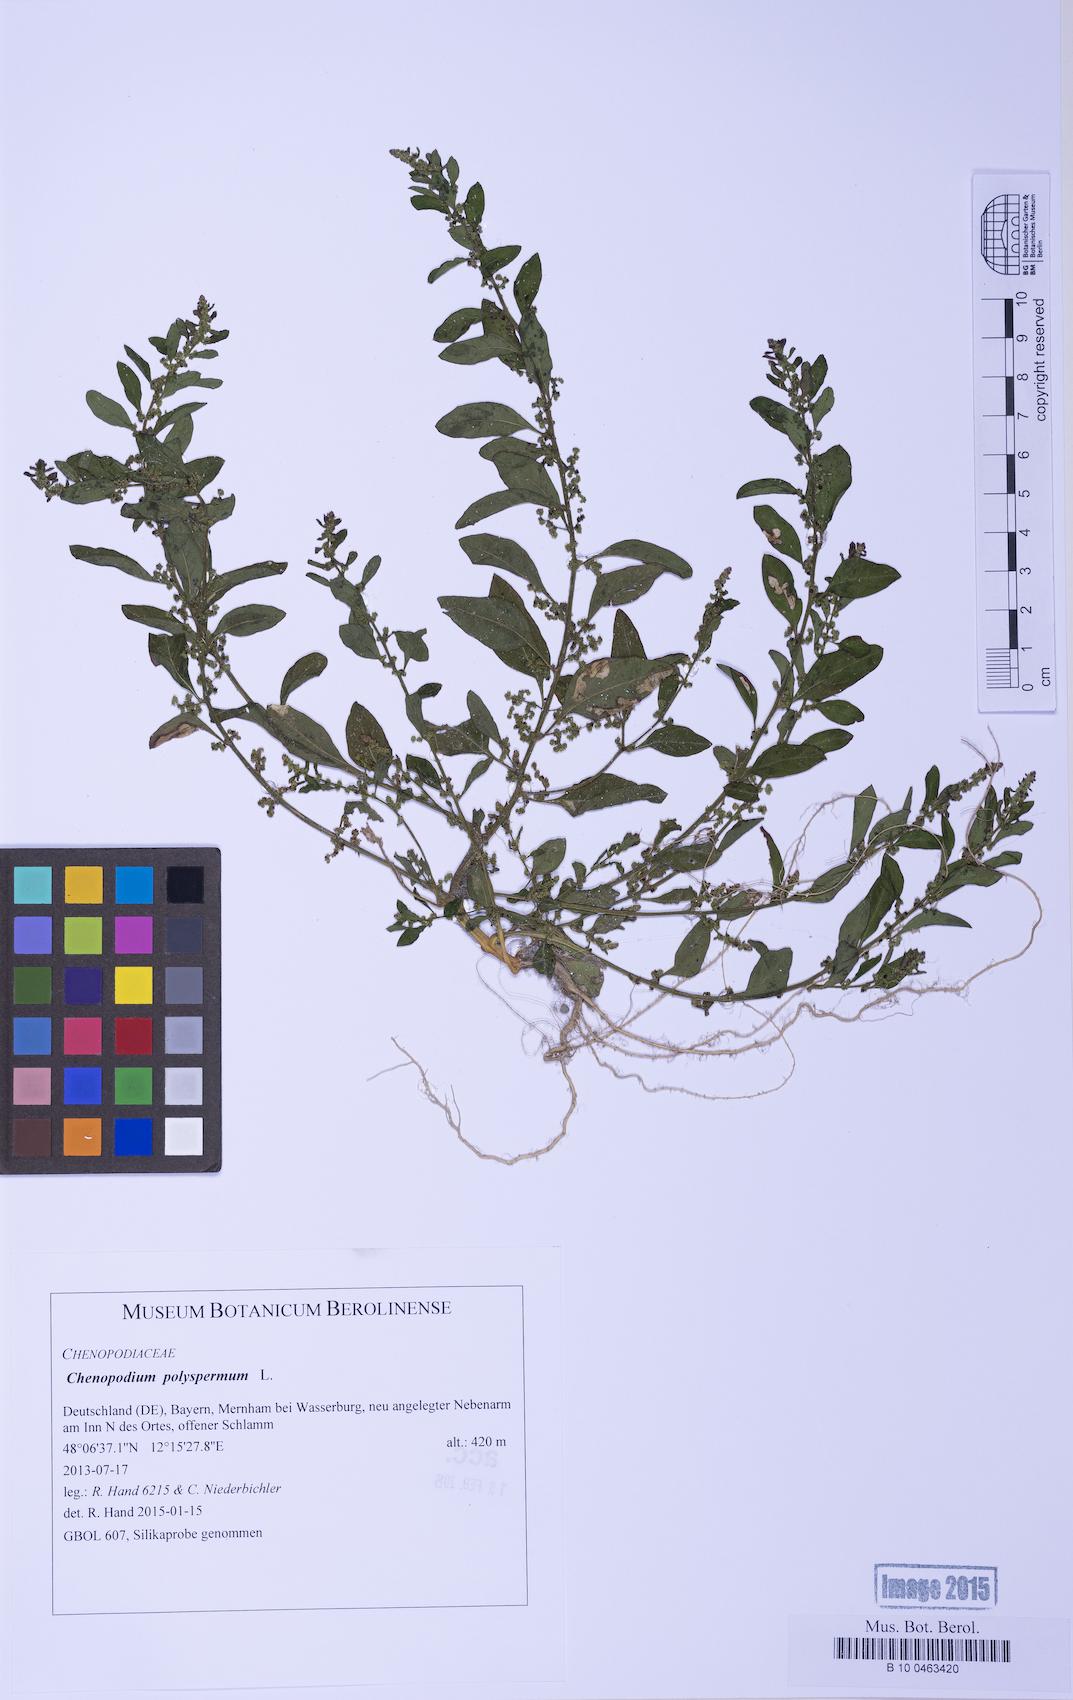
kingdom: Plantae
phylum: Tracheophyta
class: Magnoliopsida
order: Caryophyllales
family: Amaranthaceae
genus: Lipandra
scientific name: Lipandra polysperma
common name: Many-seed goosefoot
